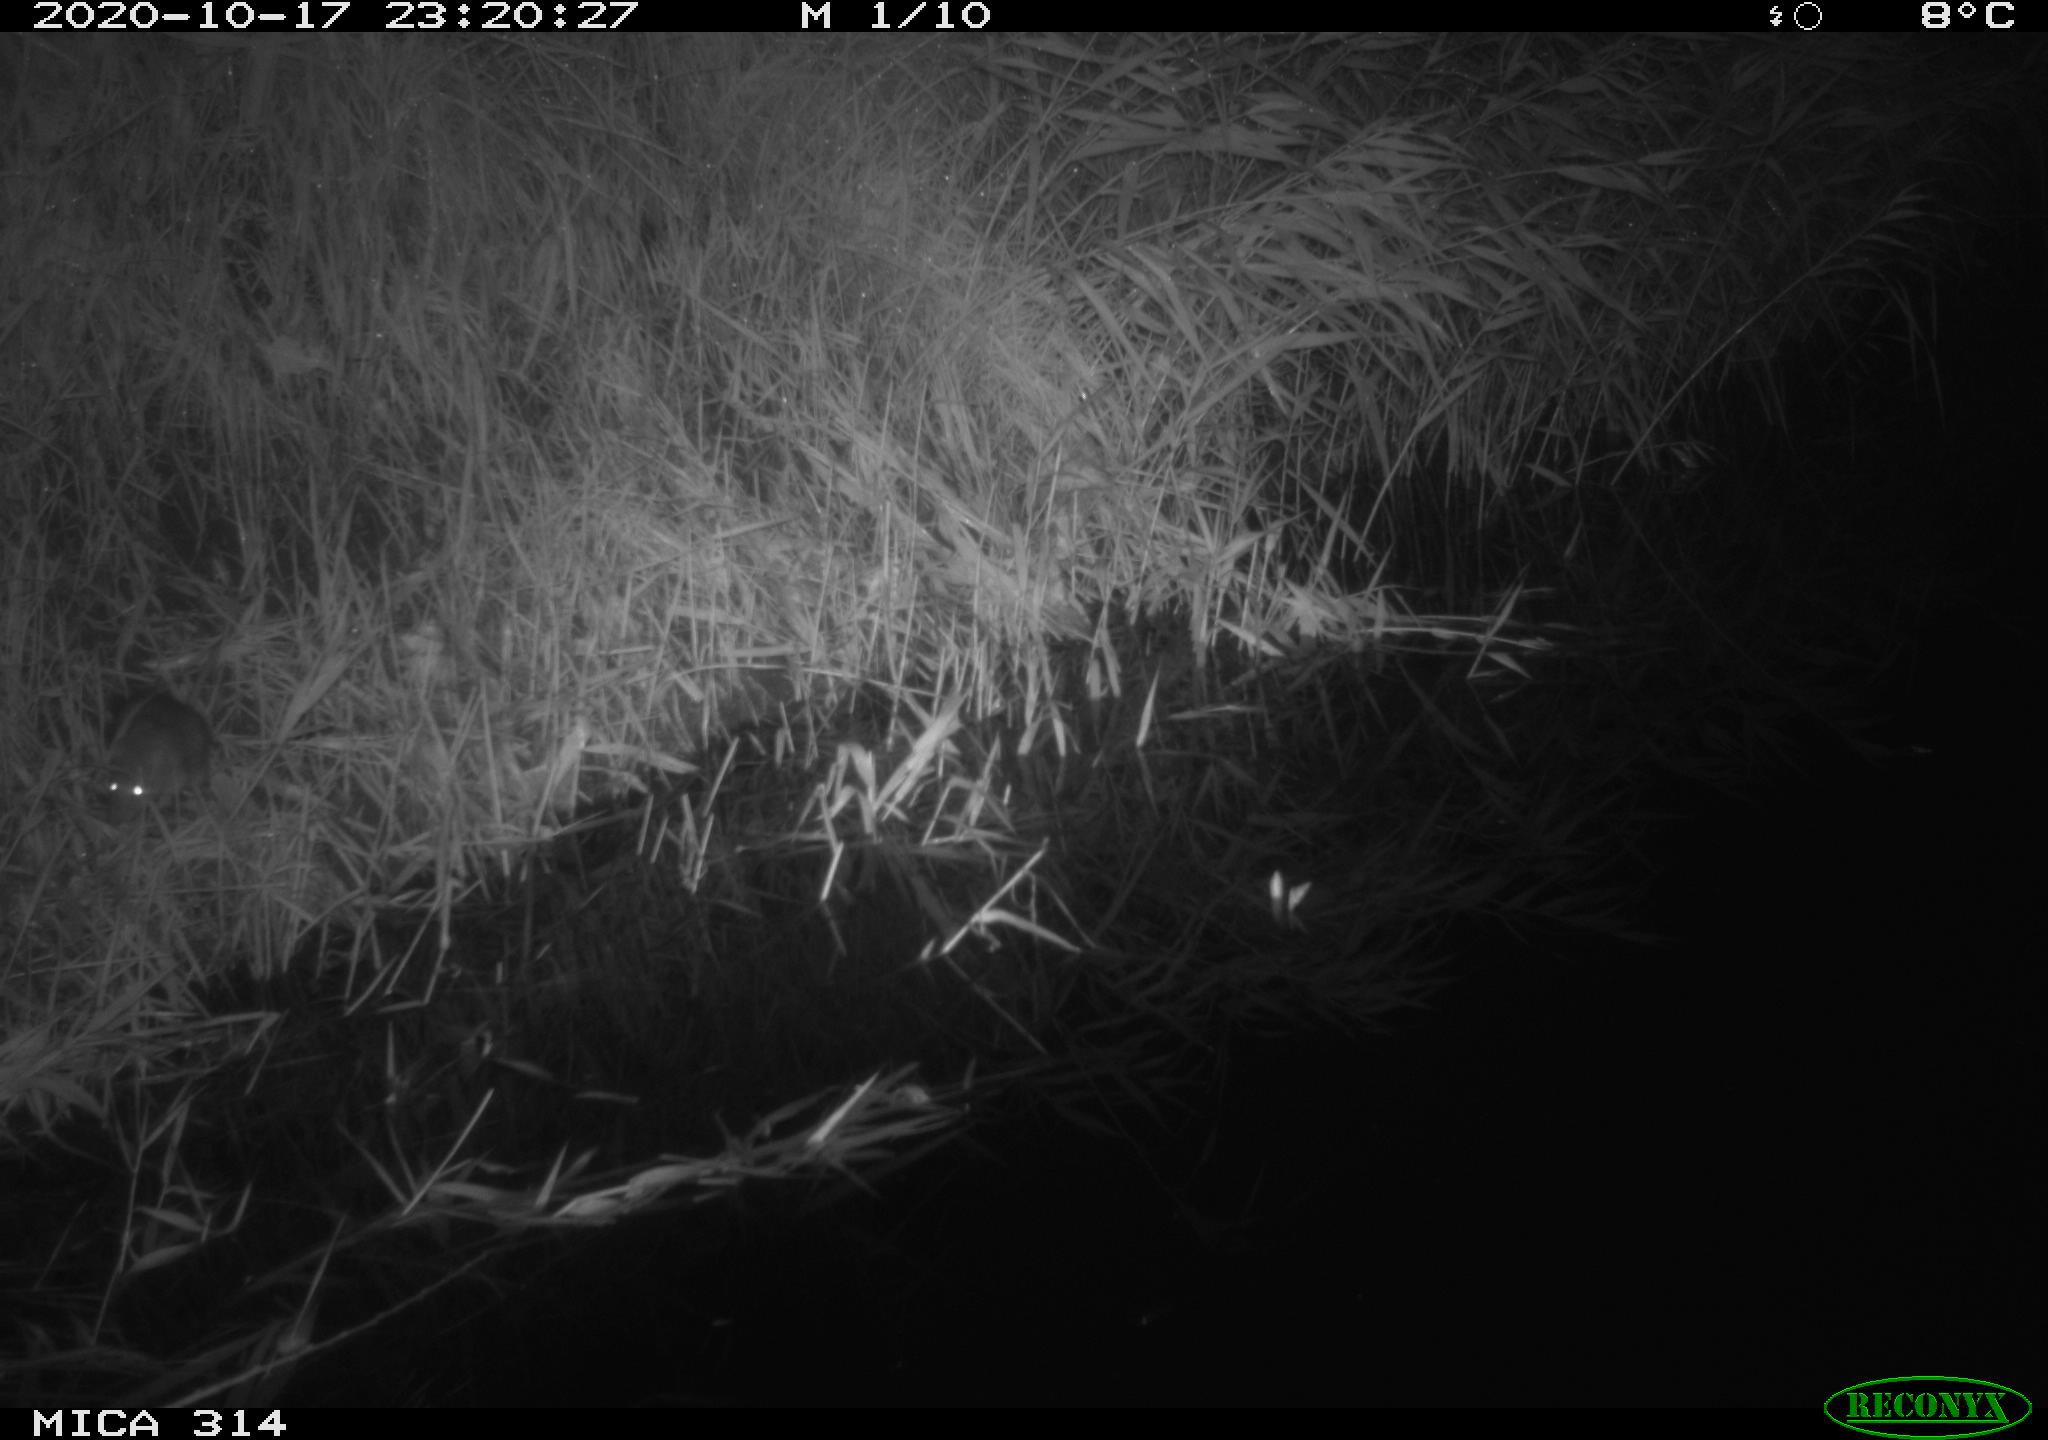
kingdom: Animalia
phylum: Chordata
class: Mammalia
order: Rodentia
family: Muridae
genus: Rattus
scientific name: Rattus norvegicus
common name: Brown rat
